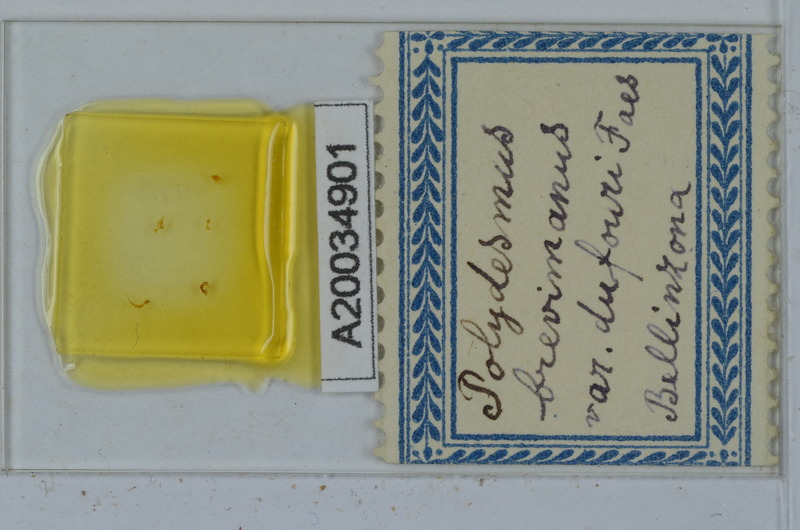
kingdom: Animalia
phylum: Arthropoda
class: Diplopoda
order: Polydesmida
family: Polydesmidae
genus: Polydesmus
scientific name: Polydesmus brevimanus
